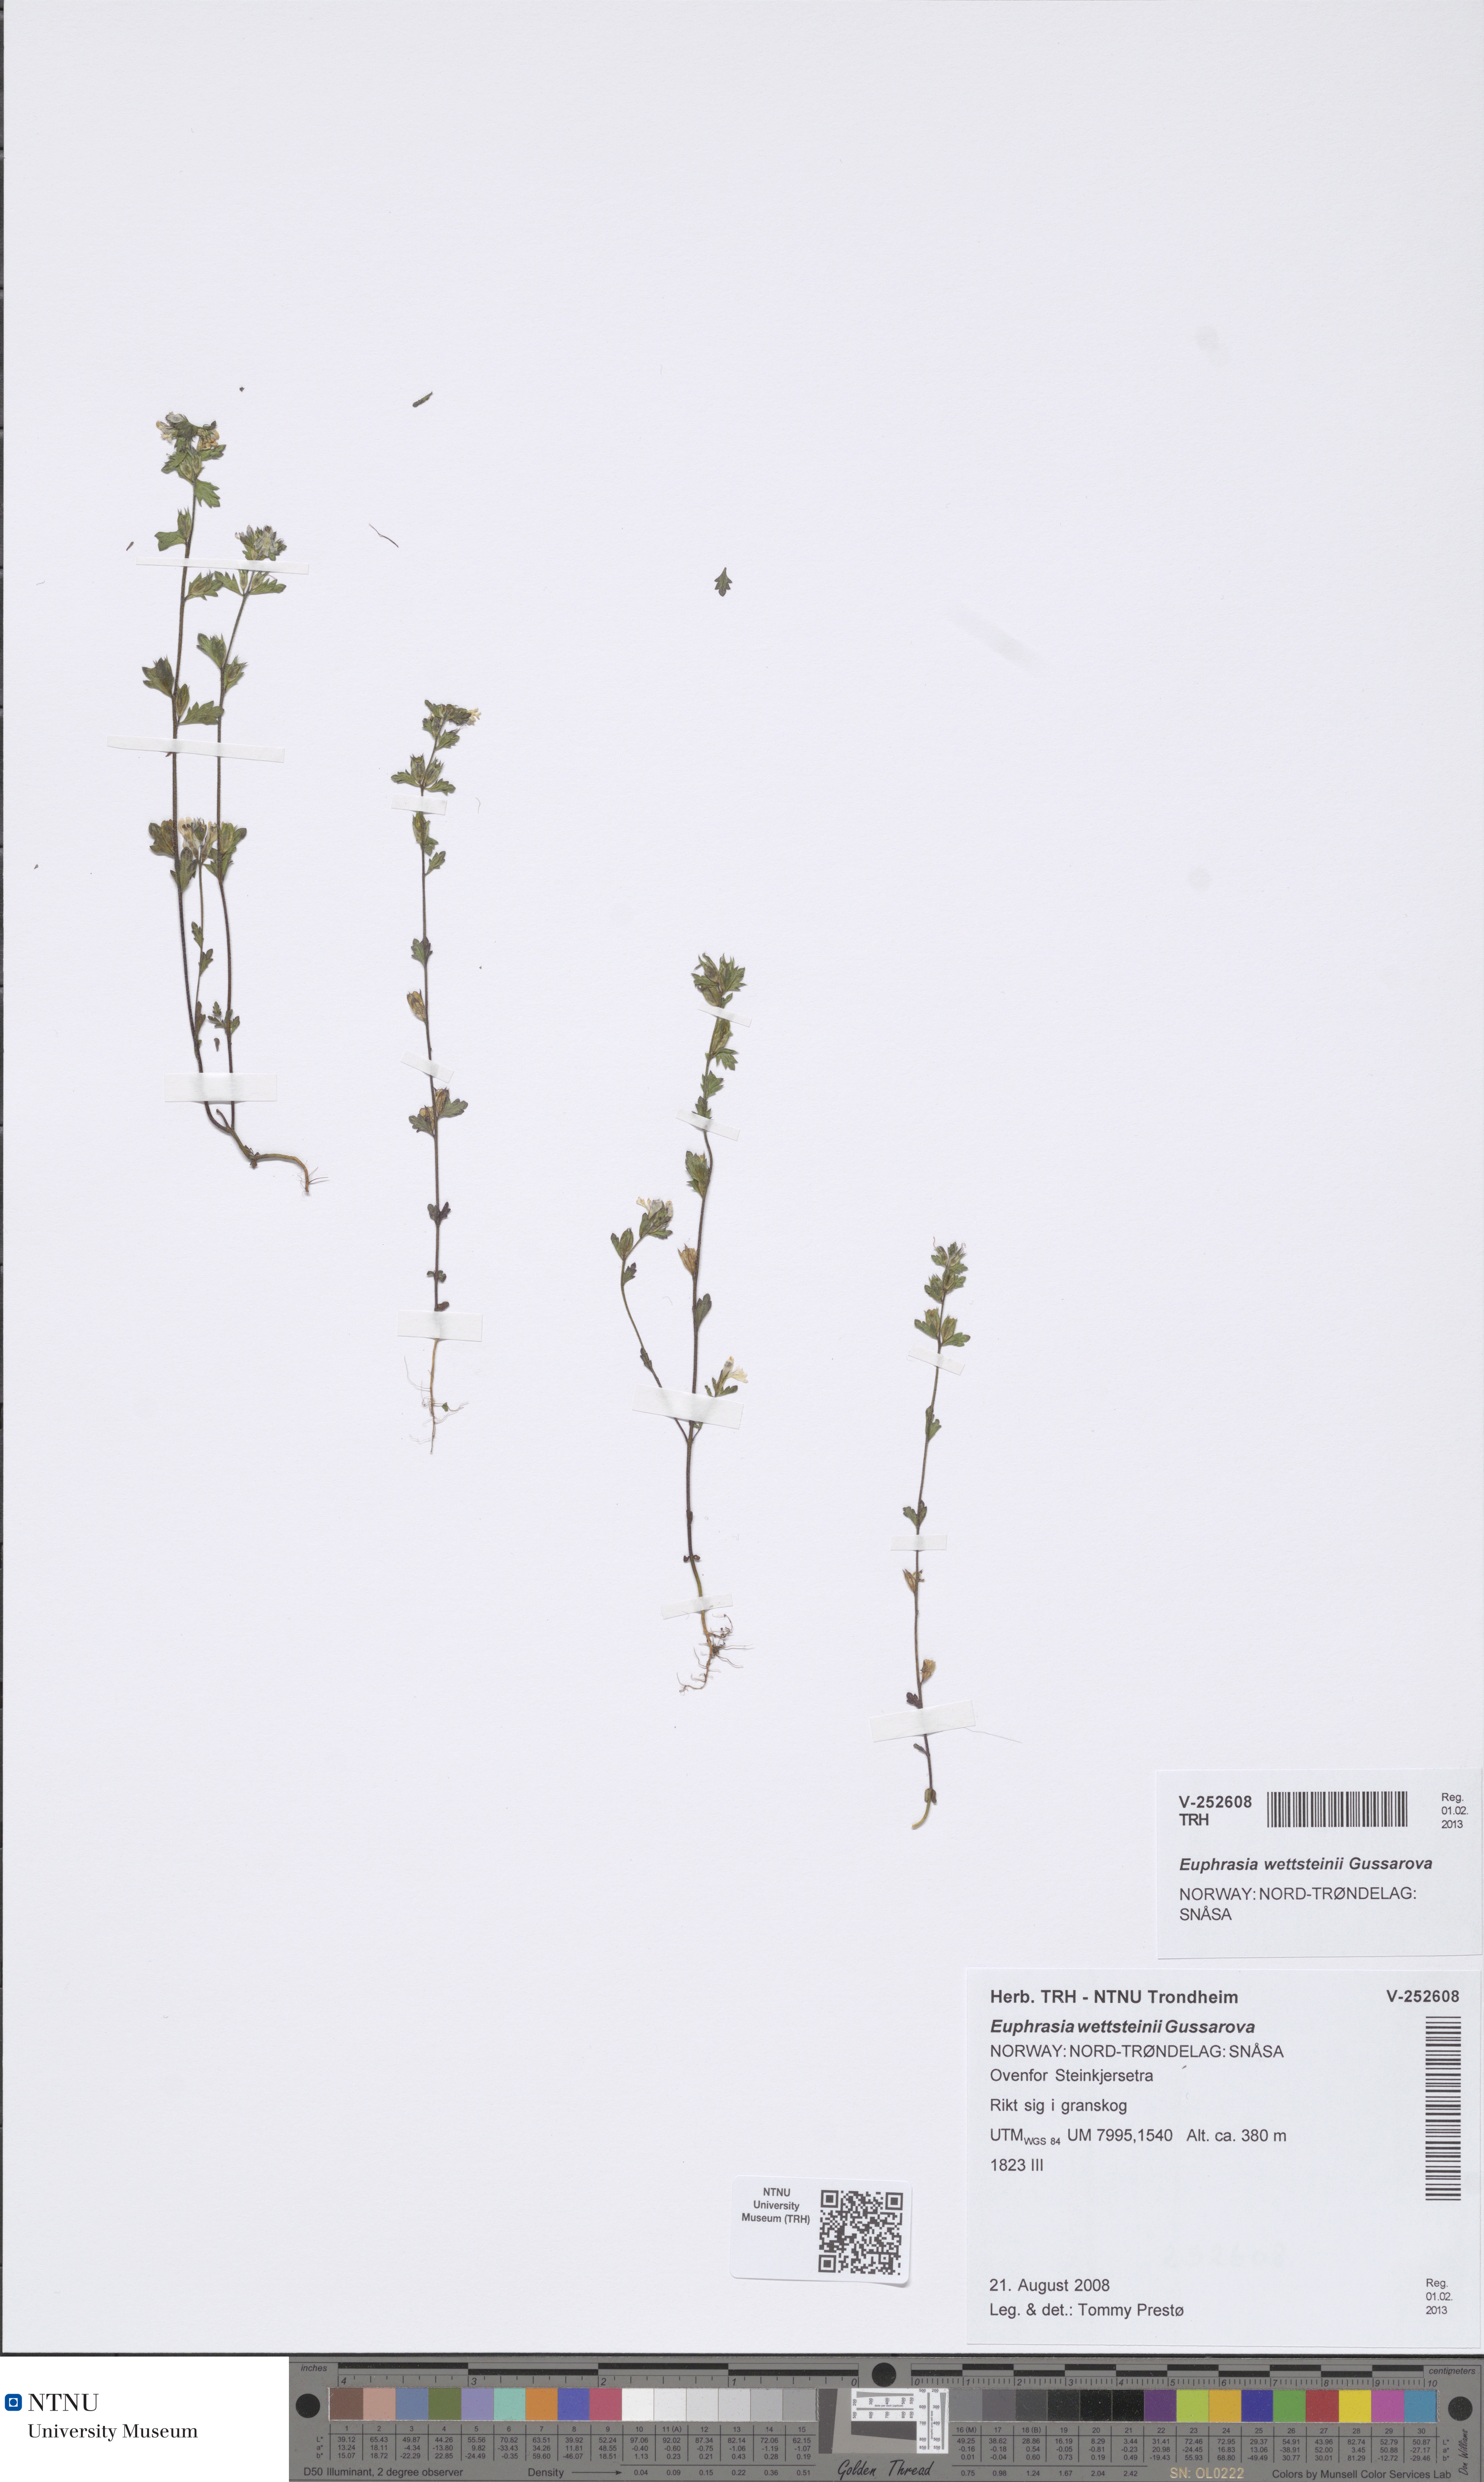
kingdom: Plantae
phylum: Tracheophyta
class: Magnoliopsida
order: Lamiales
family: Orobanchaceae
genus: Euphrasia
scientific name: Euphrasia wettsteinii
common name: Wettstein's eyebright
